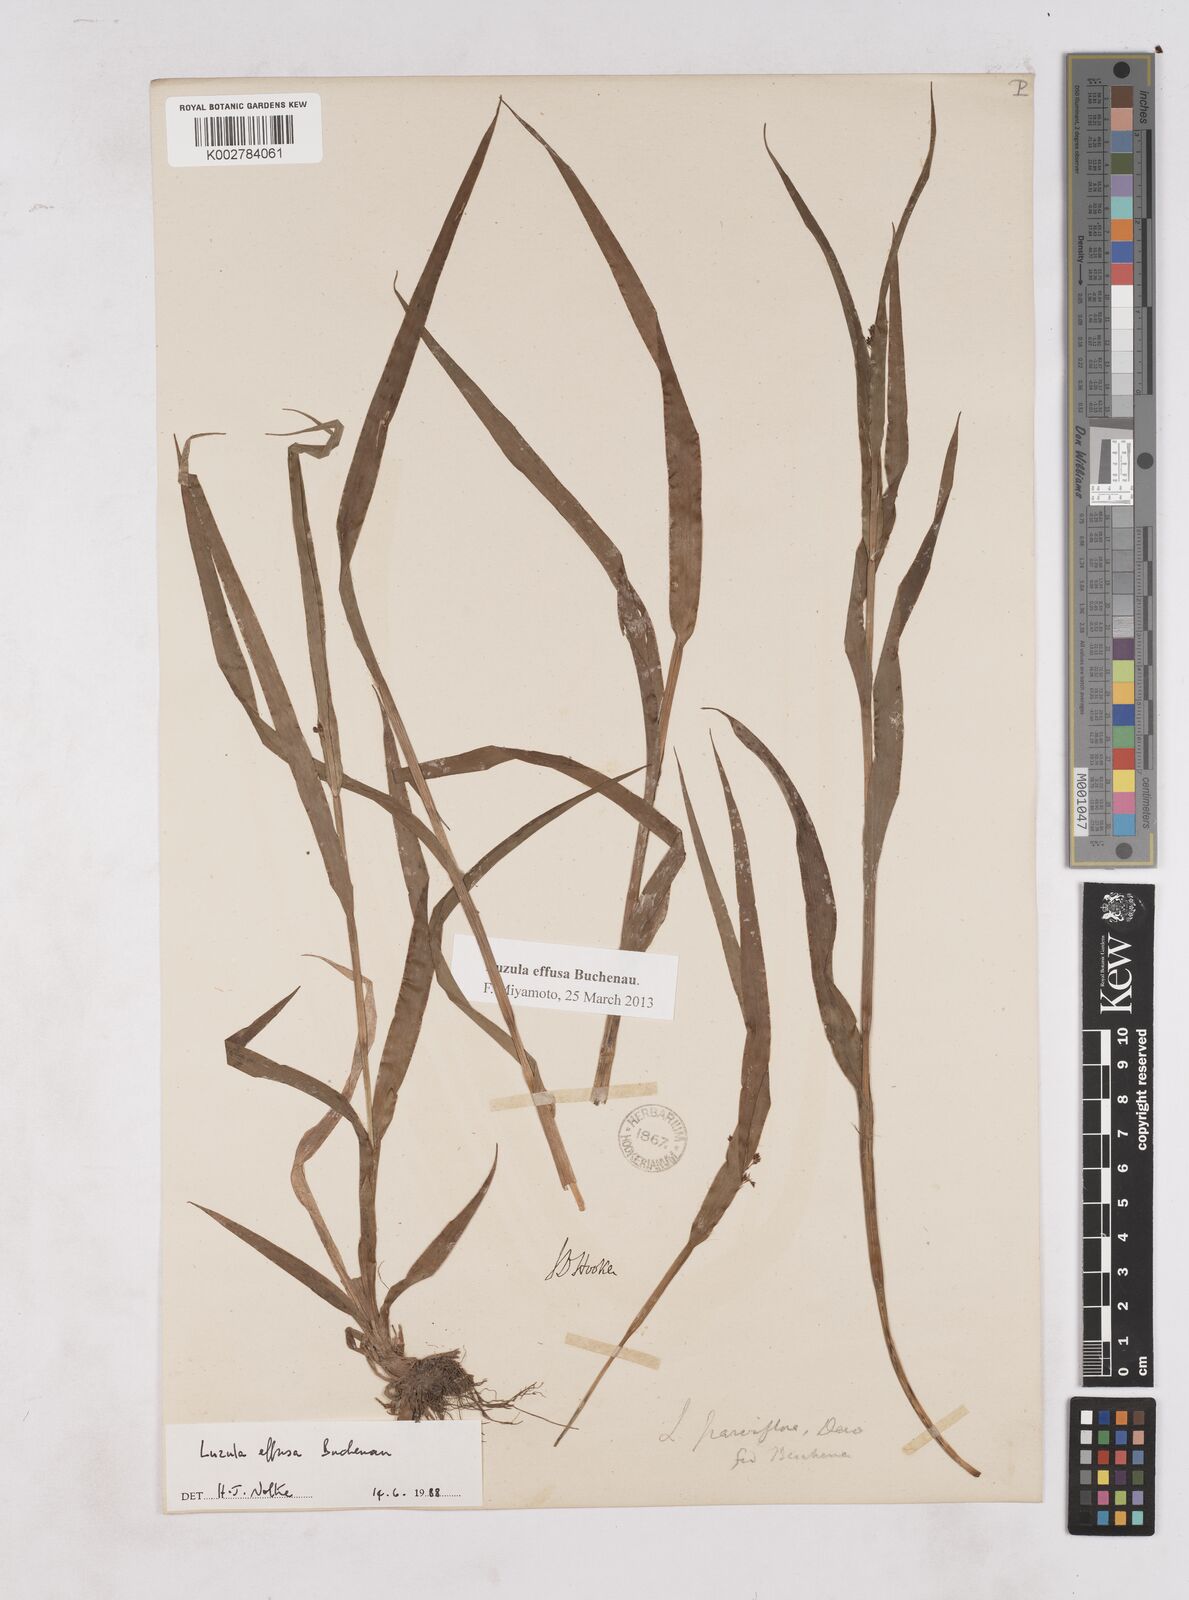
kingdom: Plantae
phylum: Tracheophyta
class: Liliopsida
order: Poales
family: Juncaceae
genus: Luzula
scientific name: Luzula effusa
